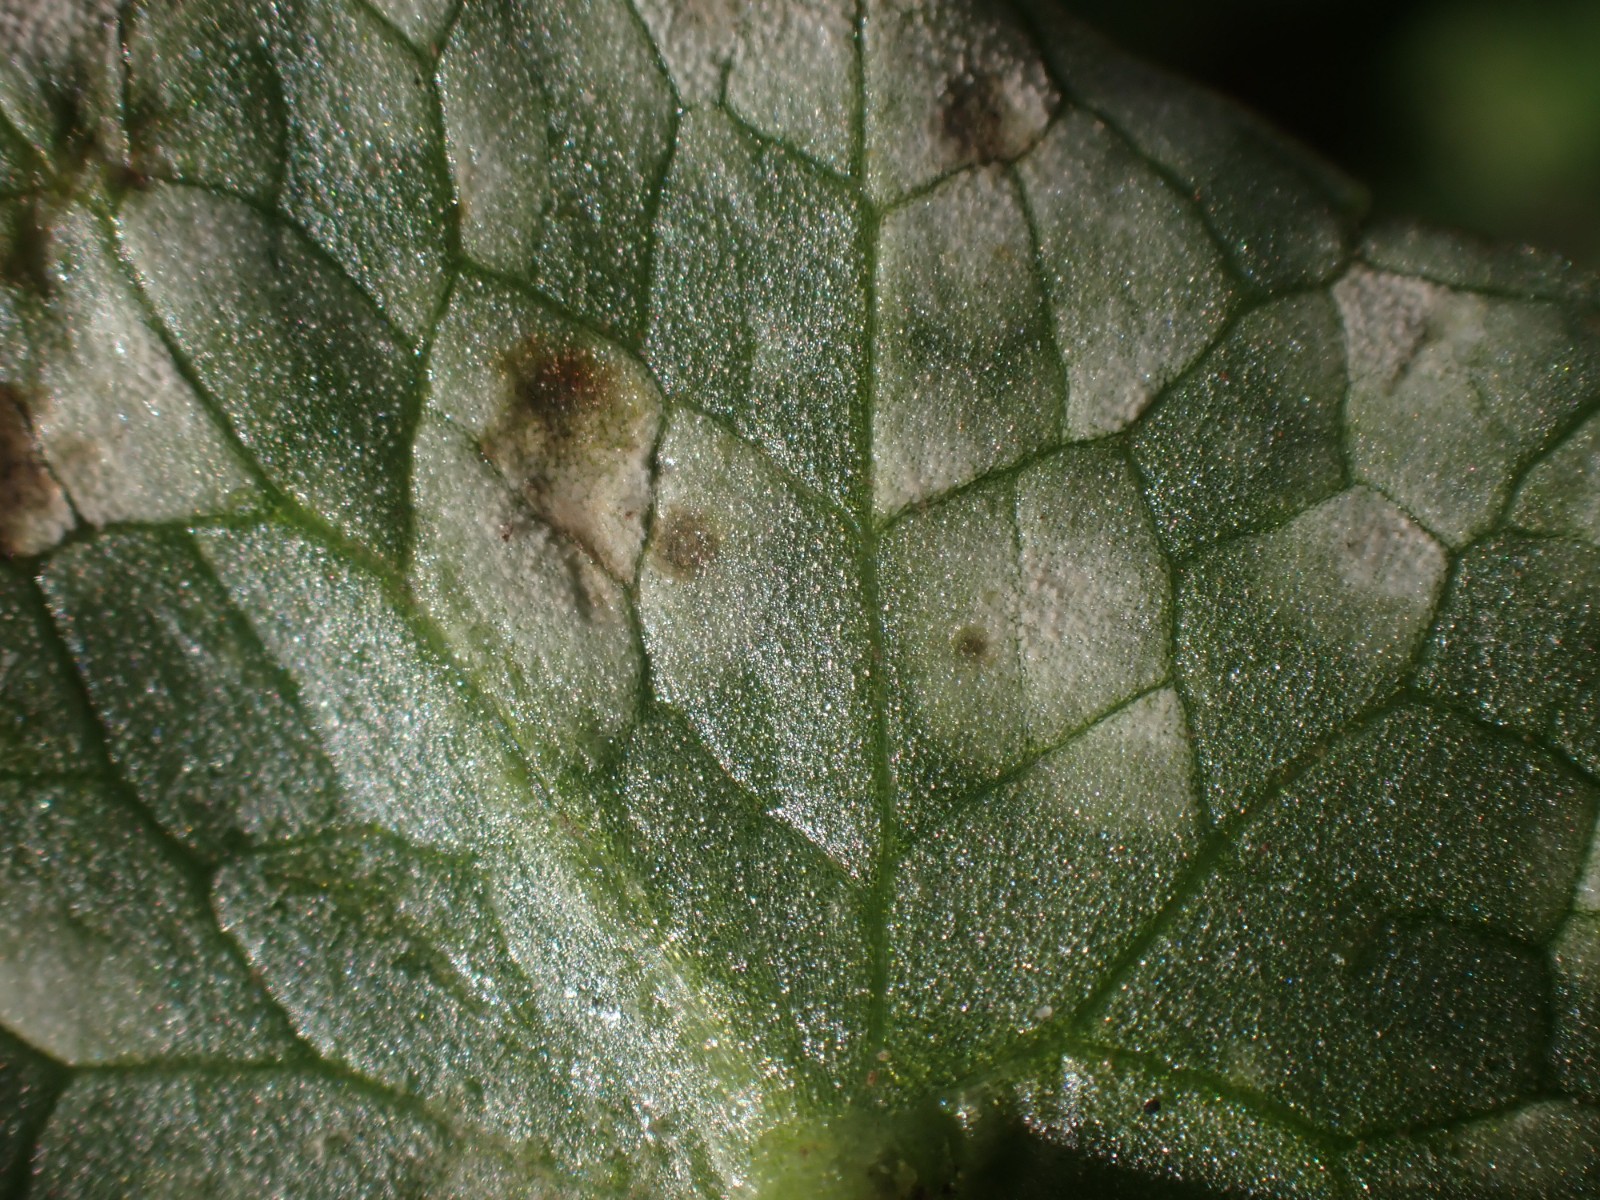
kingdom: Fungi
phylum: Basidiomycota
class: Exobasidiomycetes
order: Entylomatales
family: Entylomataceae
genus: Entyloma
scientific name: Entyloma ficariae
